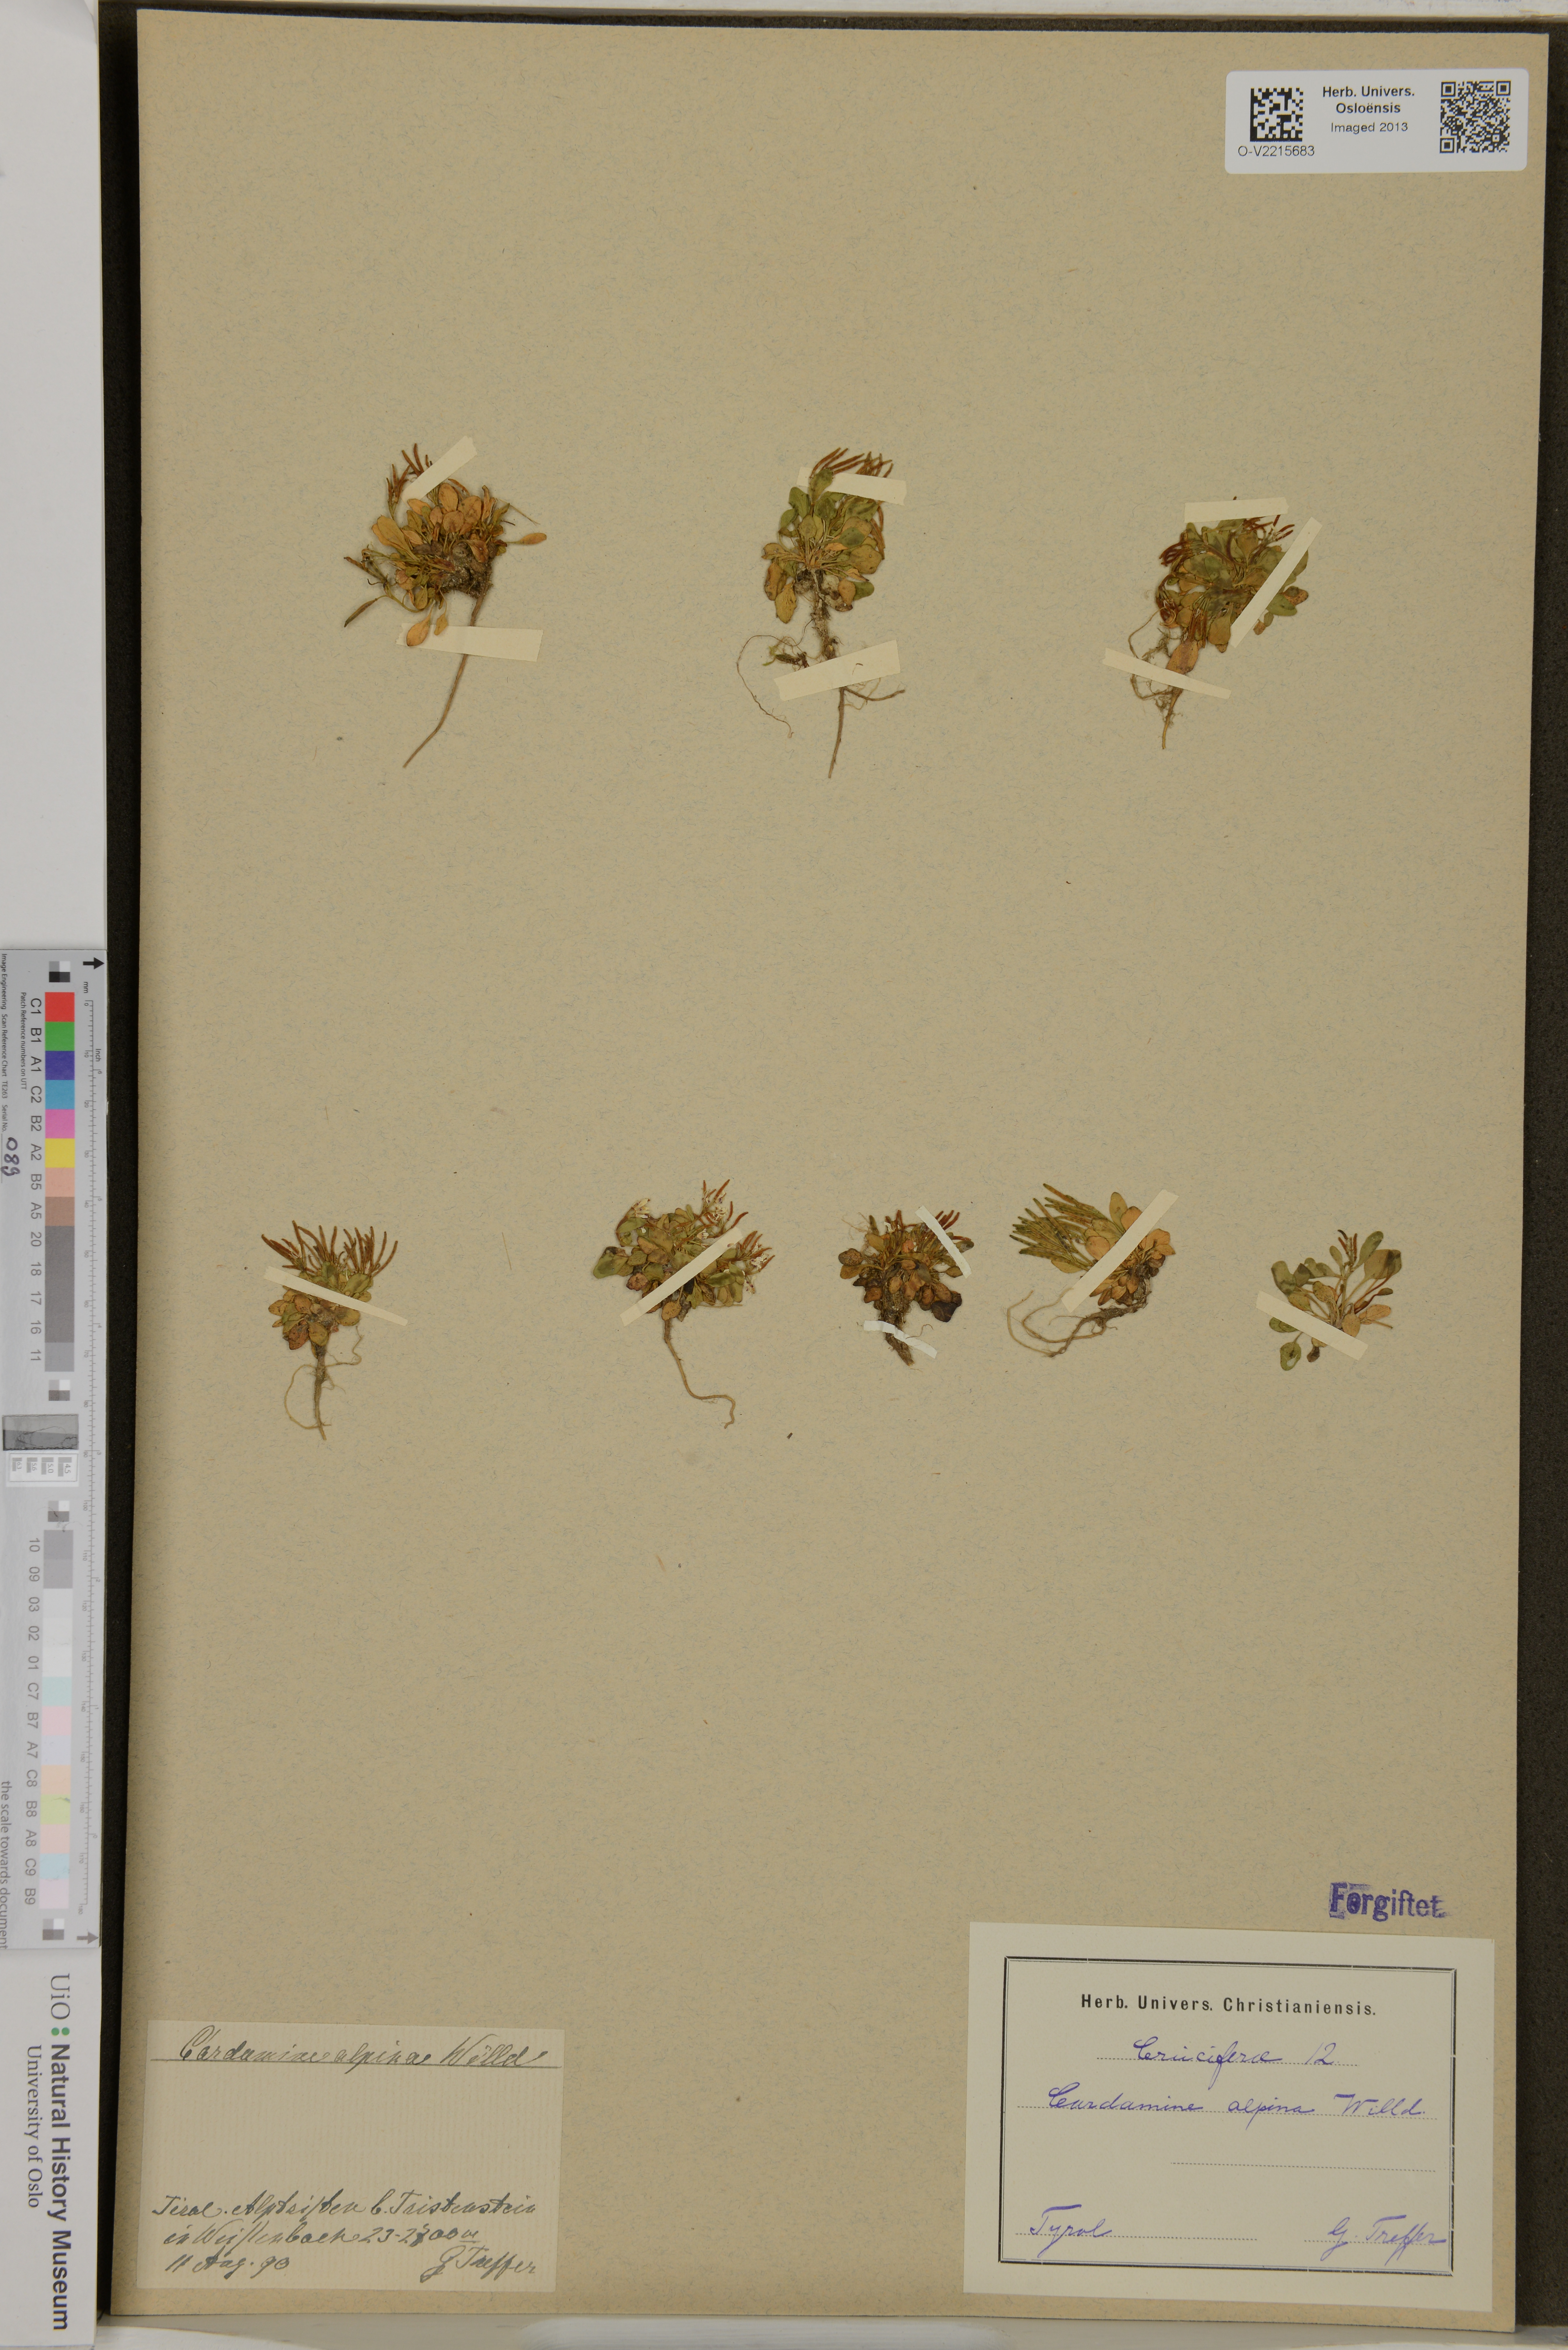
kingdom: Plantae
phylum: Tracheophyta
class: Magnoliopsida
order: Brassicales
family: Brassicaceae
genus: Cardamine
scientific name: Cardamine bellidifolia
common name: Alpine bittercress
